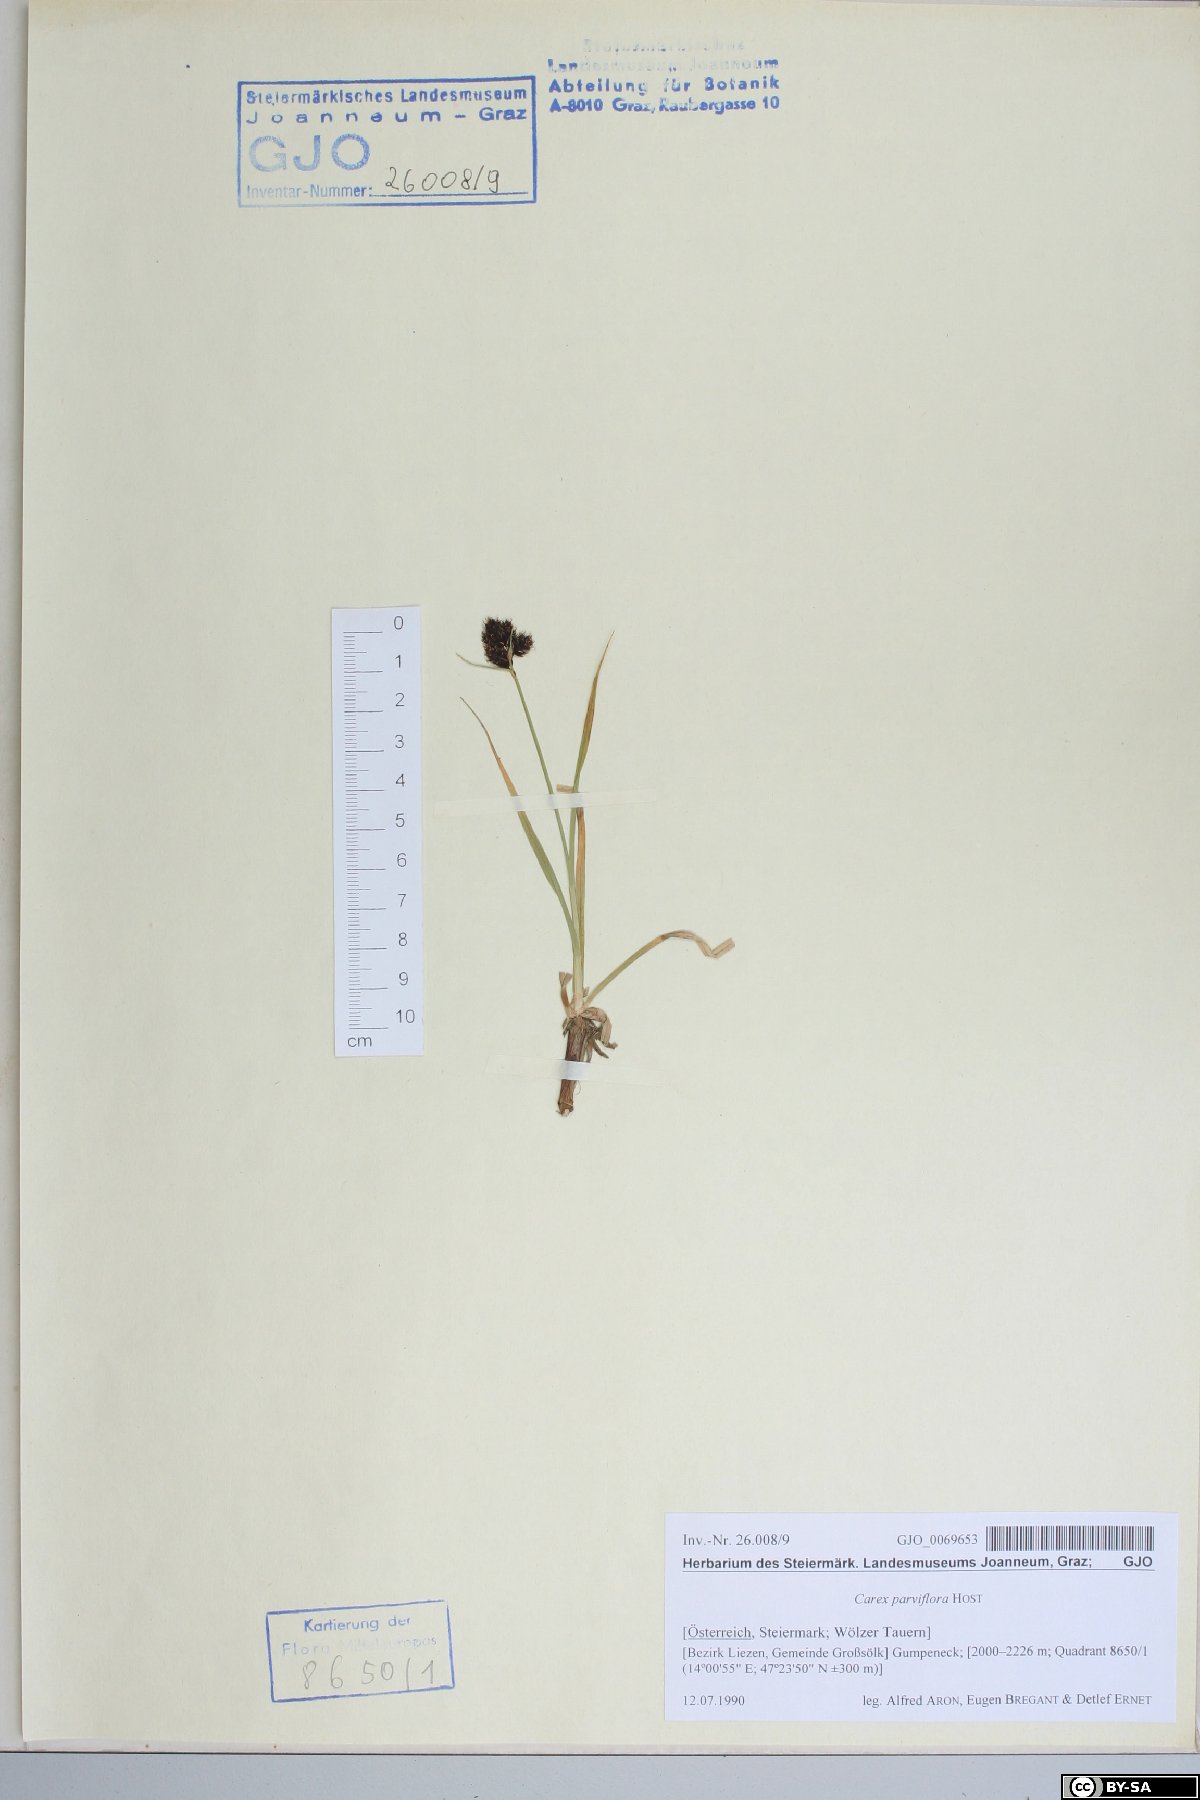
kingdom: Plantae
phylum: Tracheophyta
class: Liliopsida
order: Poales
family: Cyperaceae
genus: Carex
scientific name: Carex parviflora
